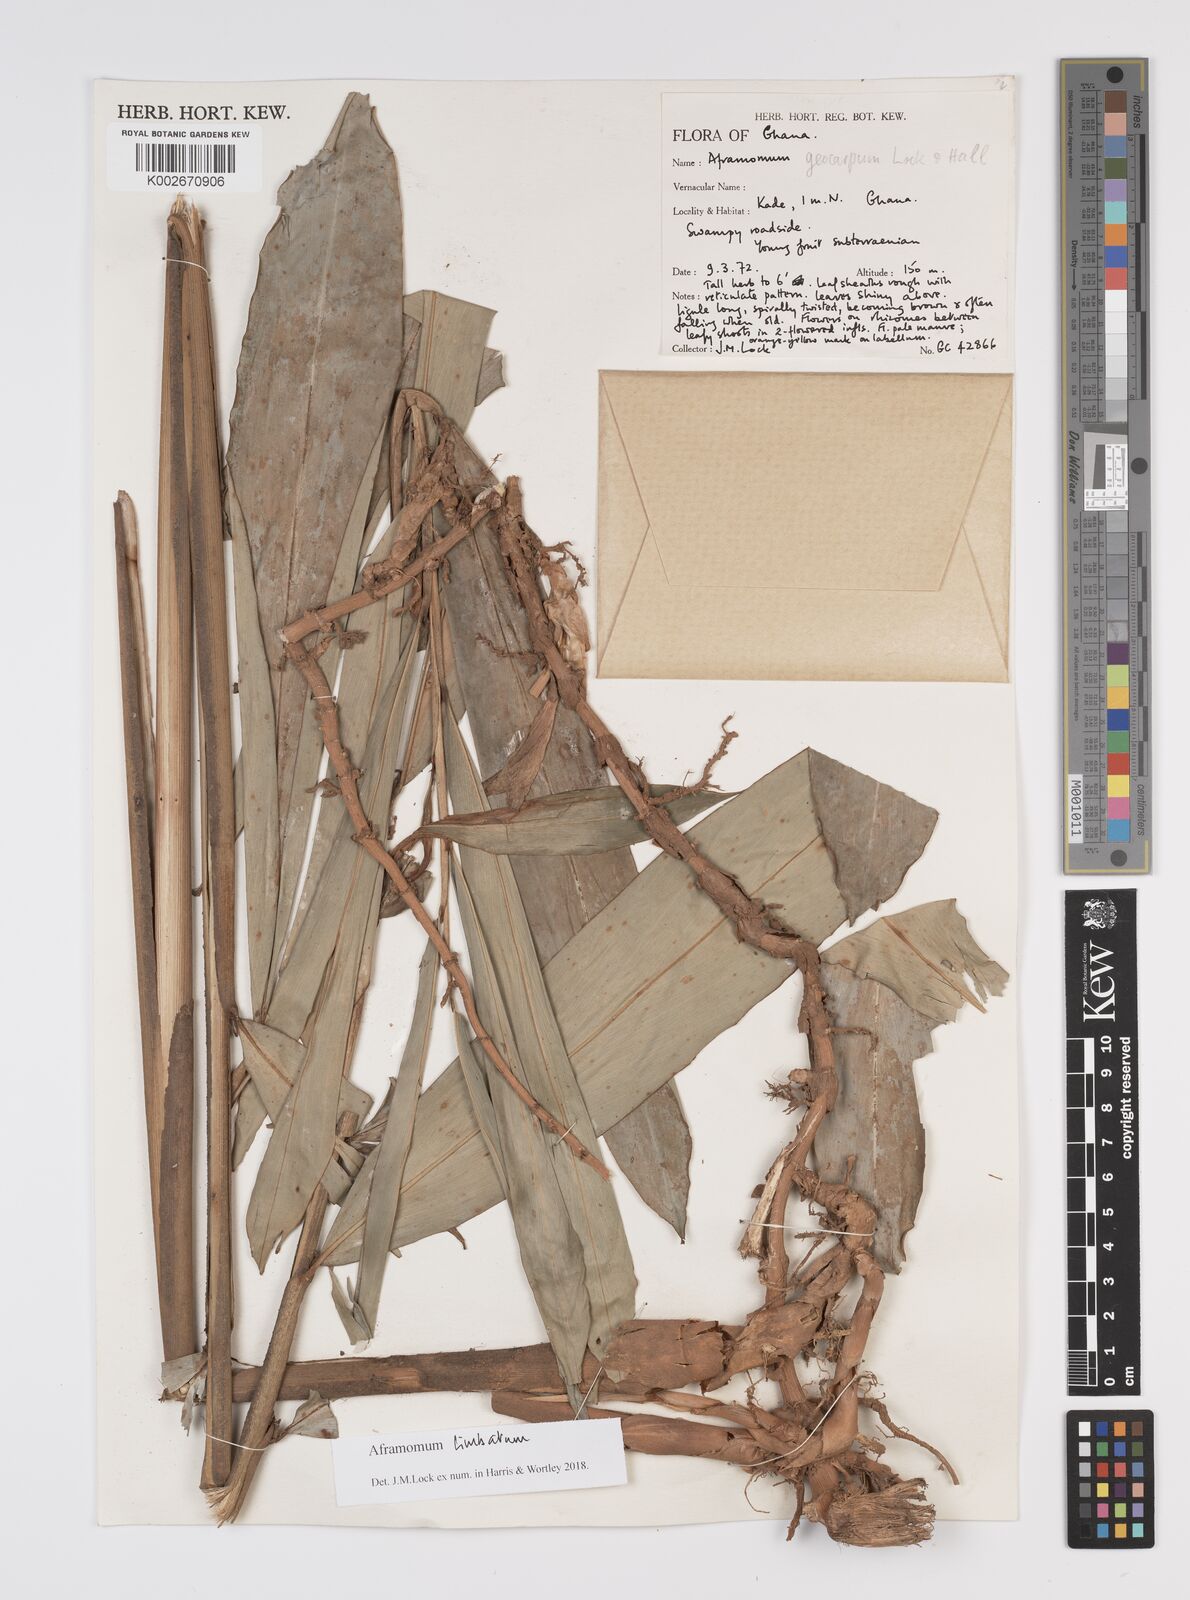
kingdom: Plantae
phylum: Tracheophyta
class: Liliopsida
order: Zingiberales
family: Zingiberaceae
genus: Aframomum
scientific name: Aframomum limbatum
